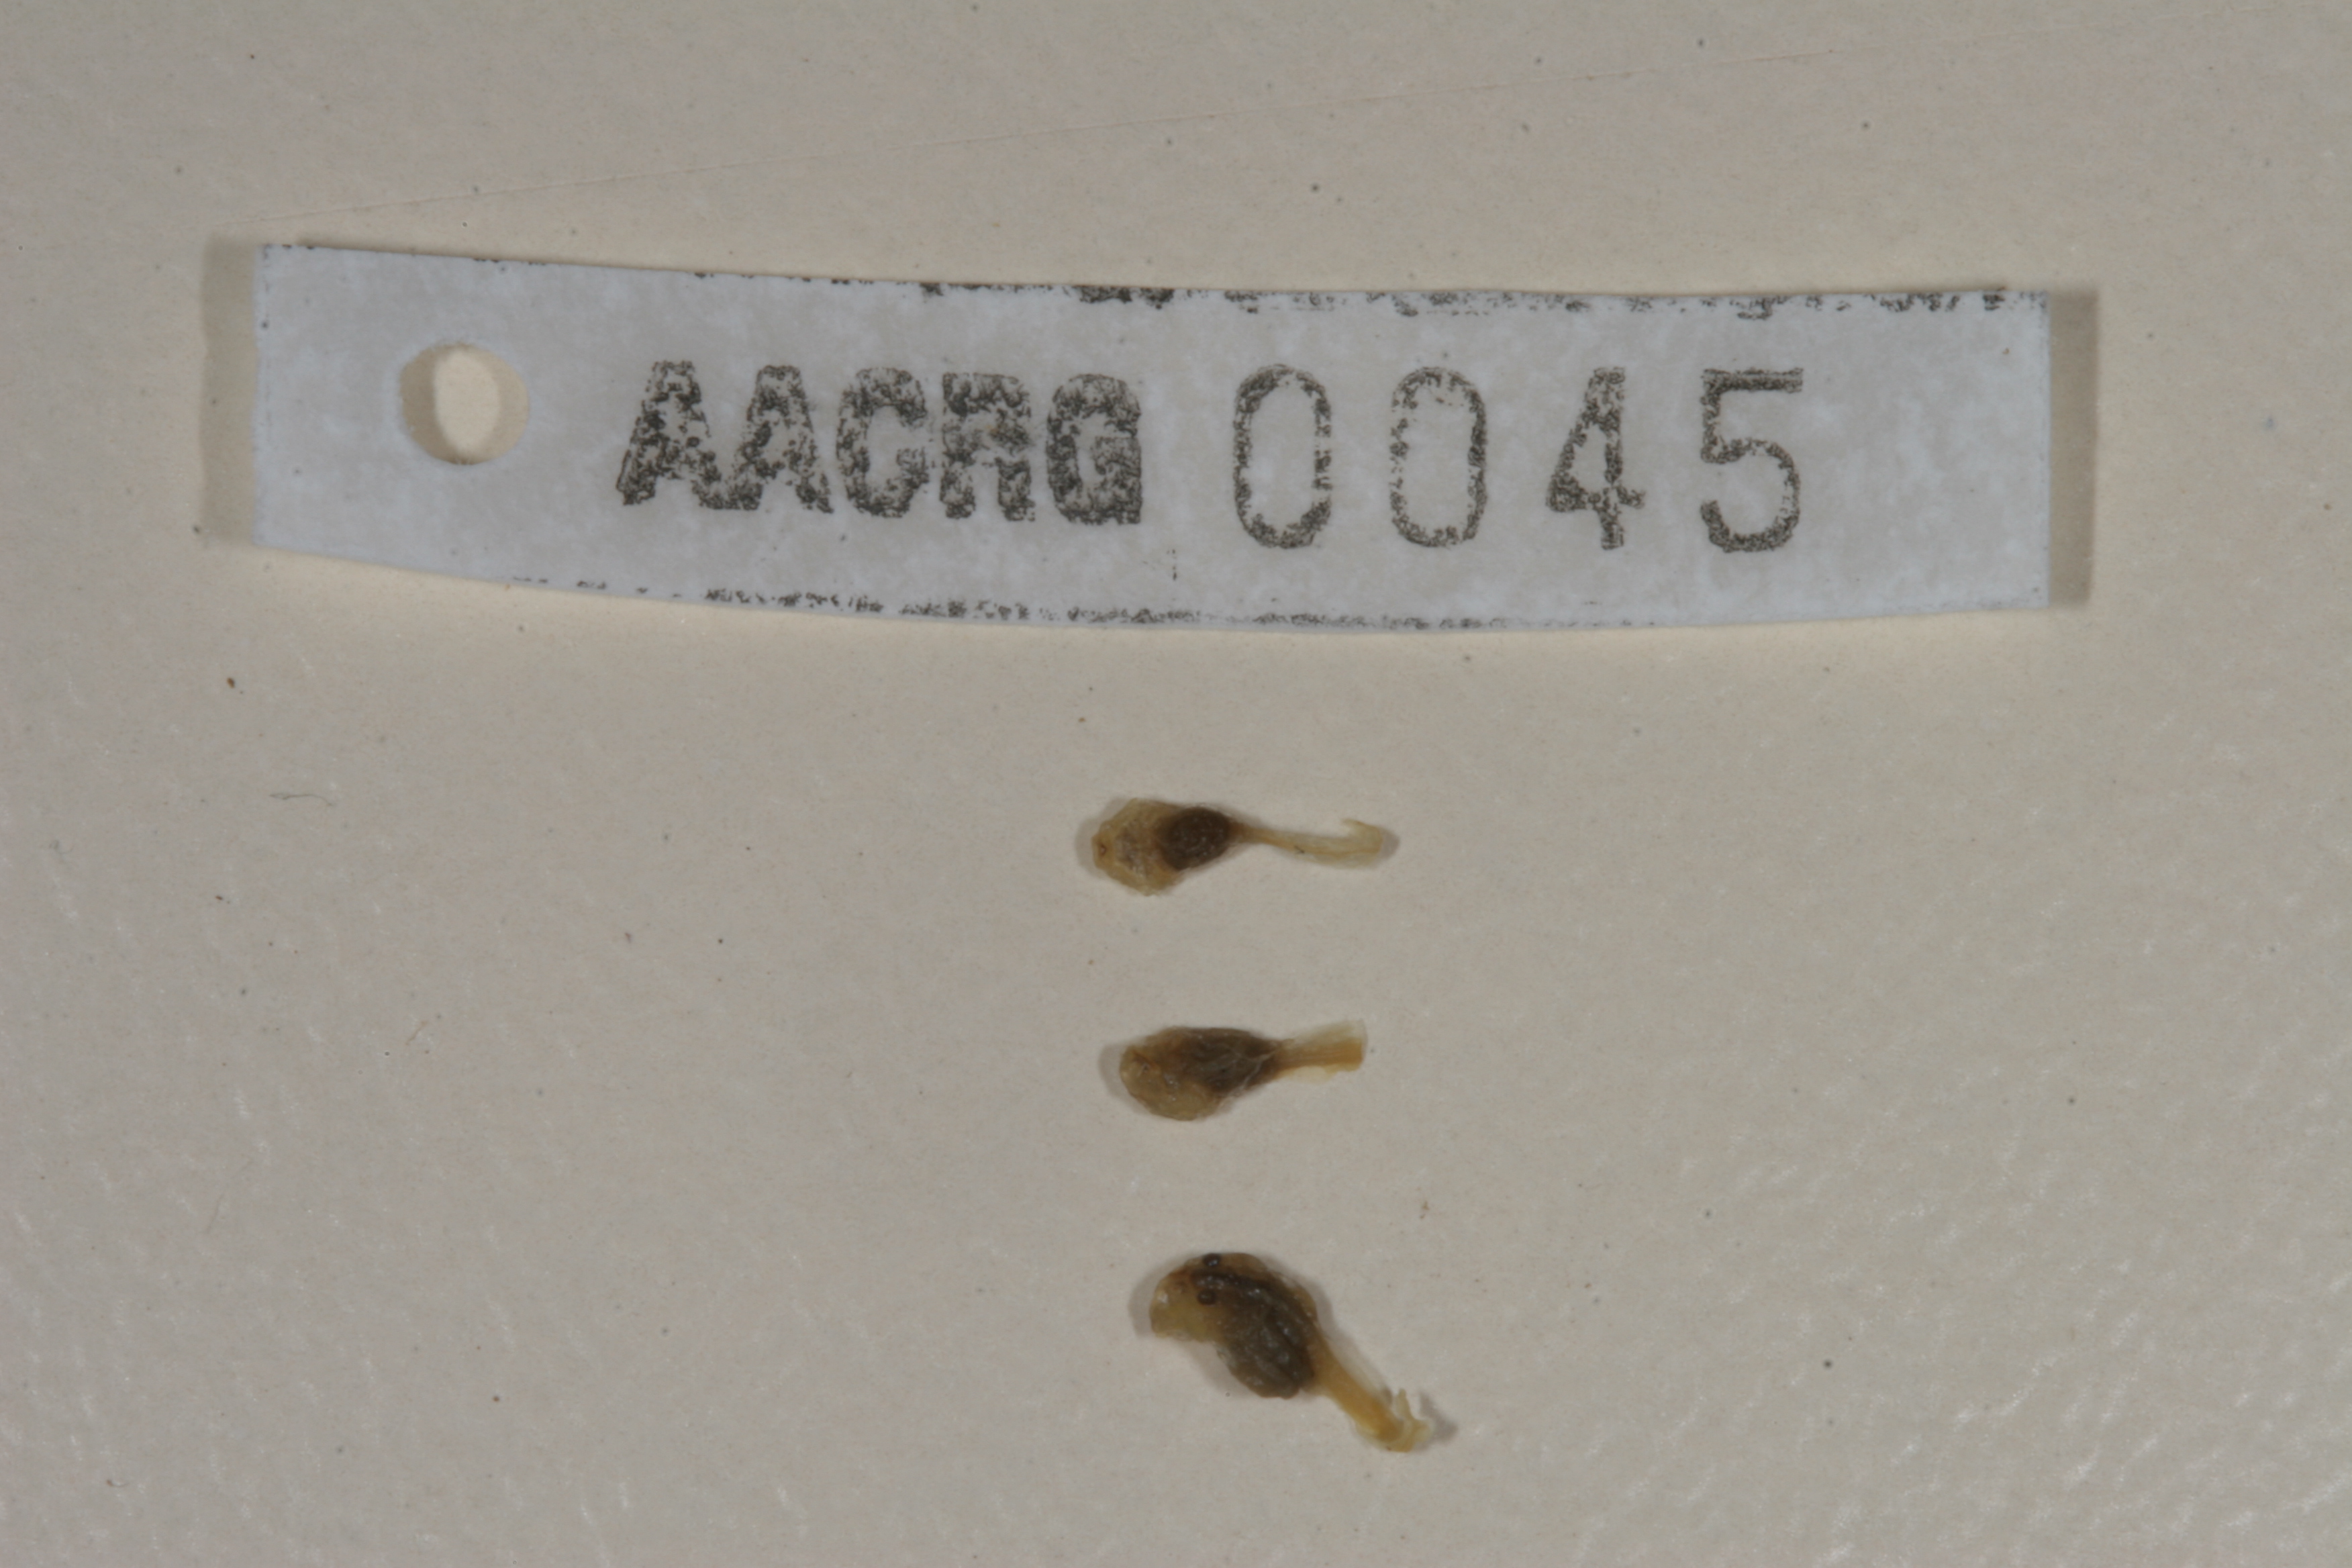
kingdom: Animalia
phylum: Chordata
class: Amphibia
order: Anura
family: Bufonidae
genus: Sclerophrys
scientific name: Sclerophrys garmani
